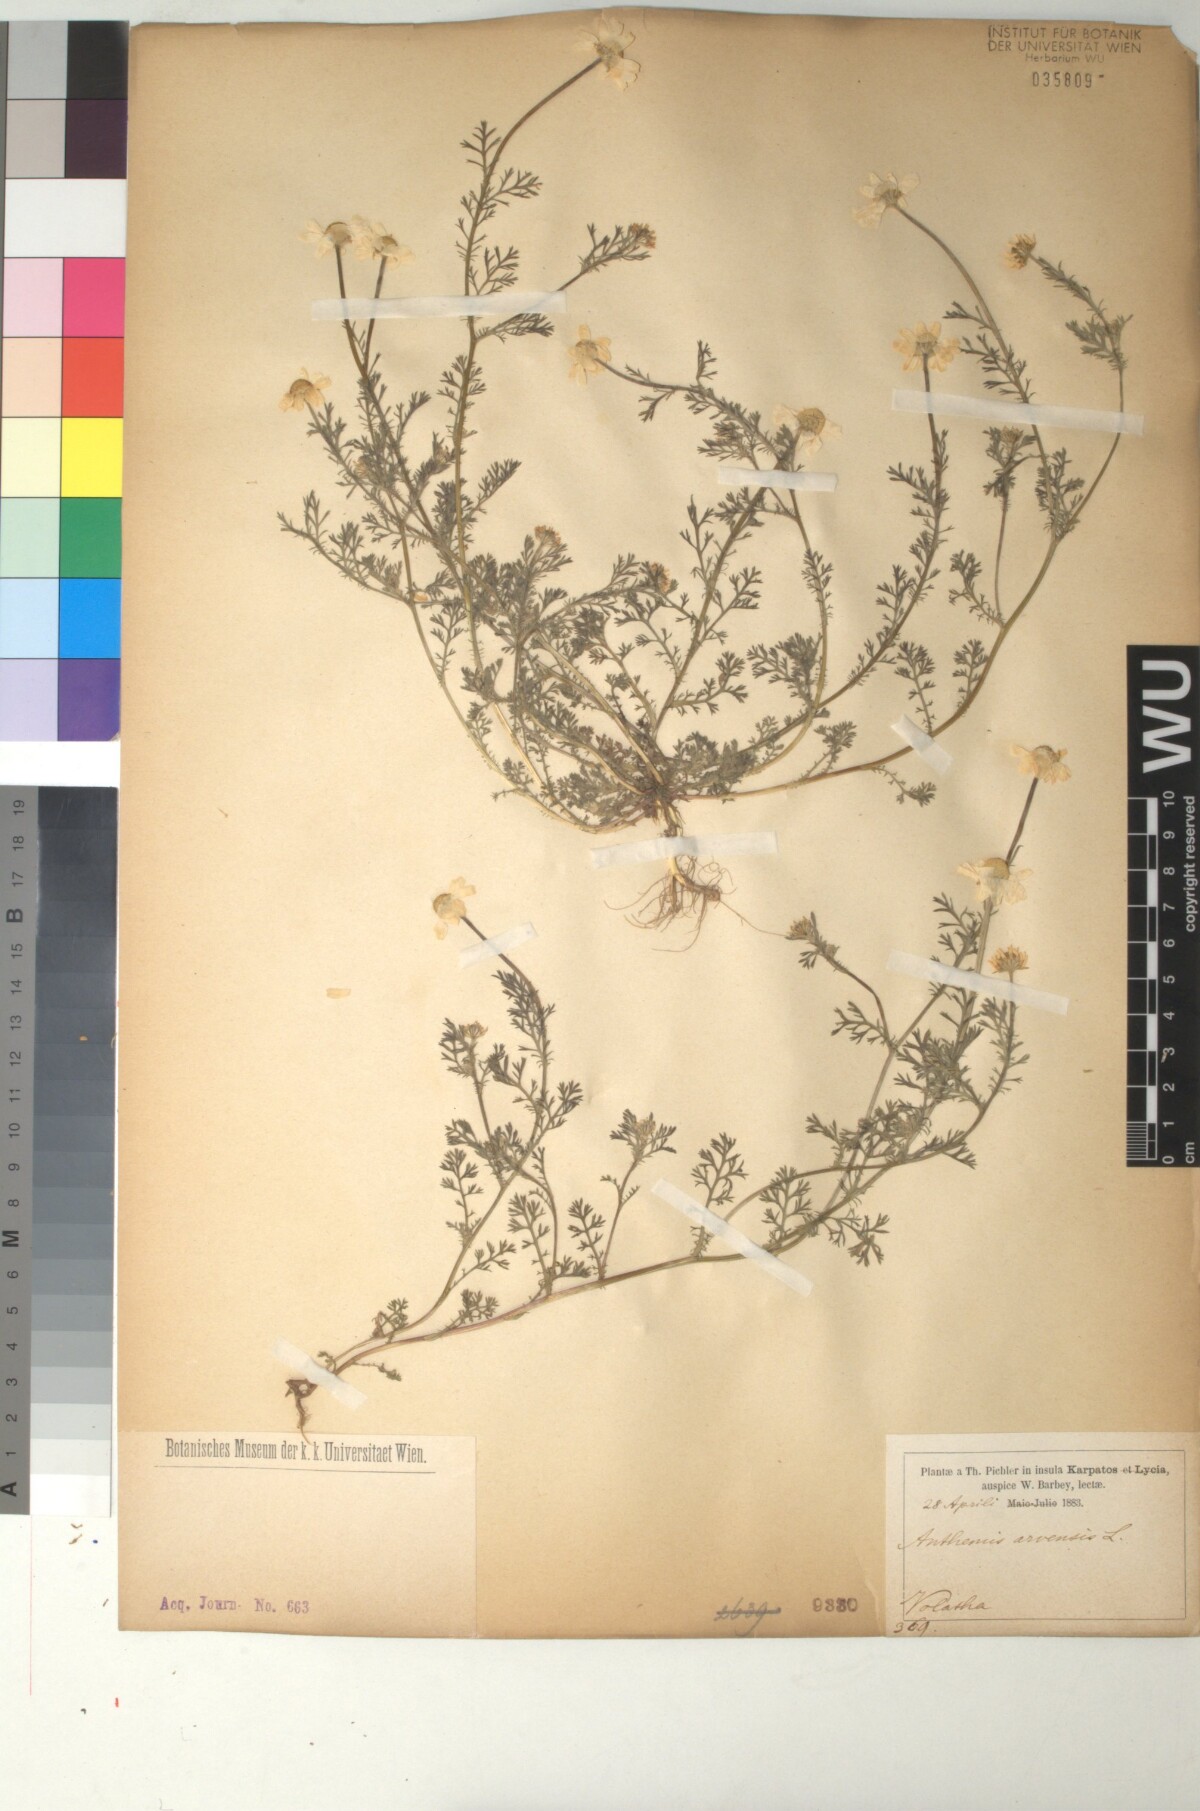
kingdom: Plantae
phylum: Tracheophyta
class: Magnoliopsida
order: Asterales
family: Asteraceae
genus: Anthemis
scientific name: Anthemis arvensis
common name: Corn chamomile
